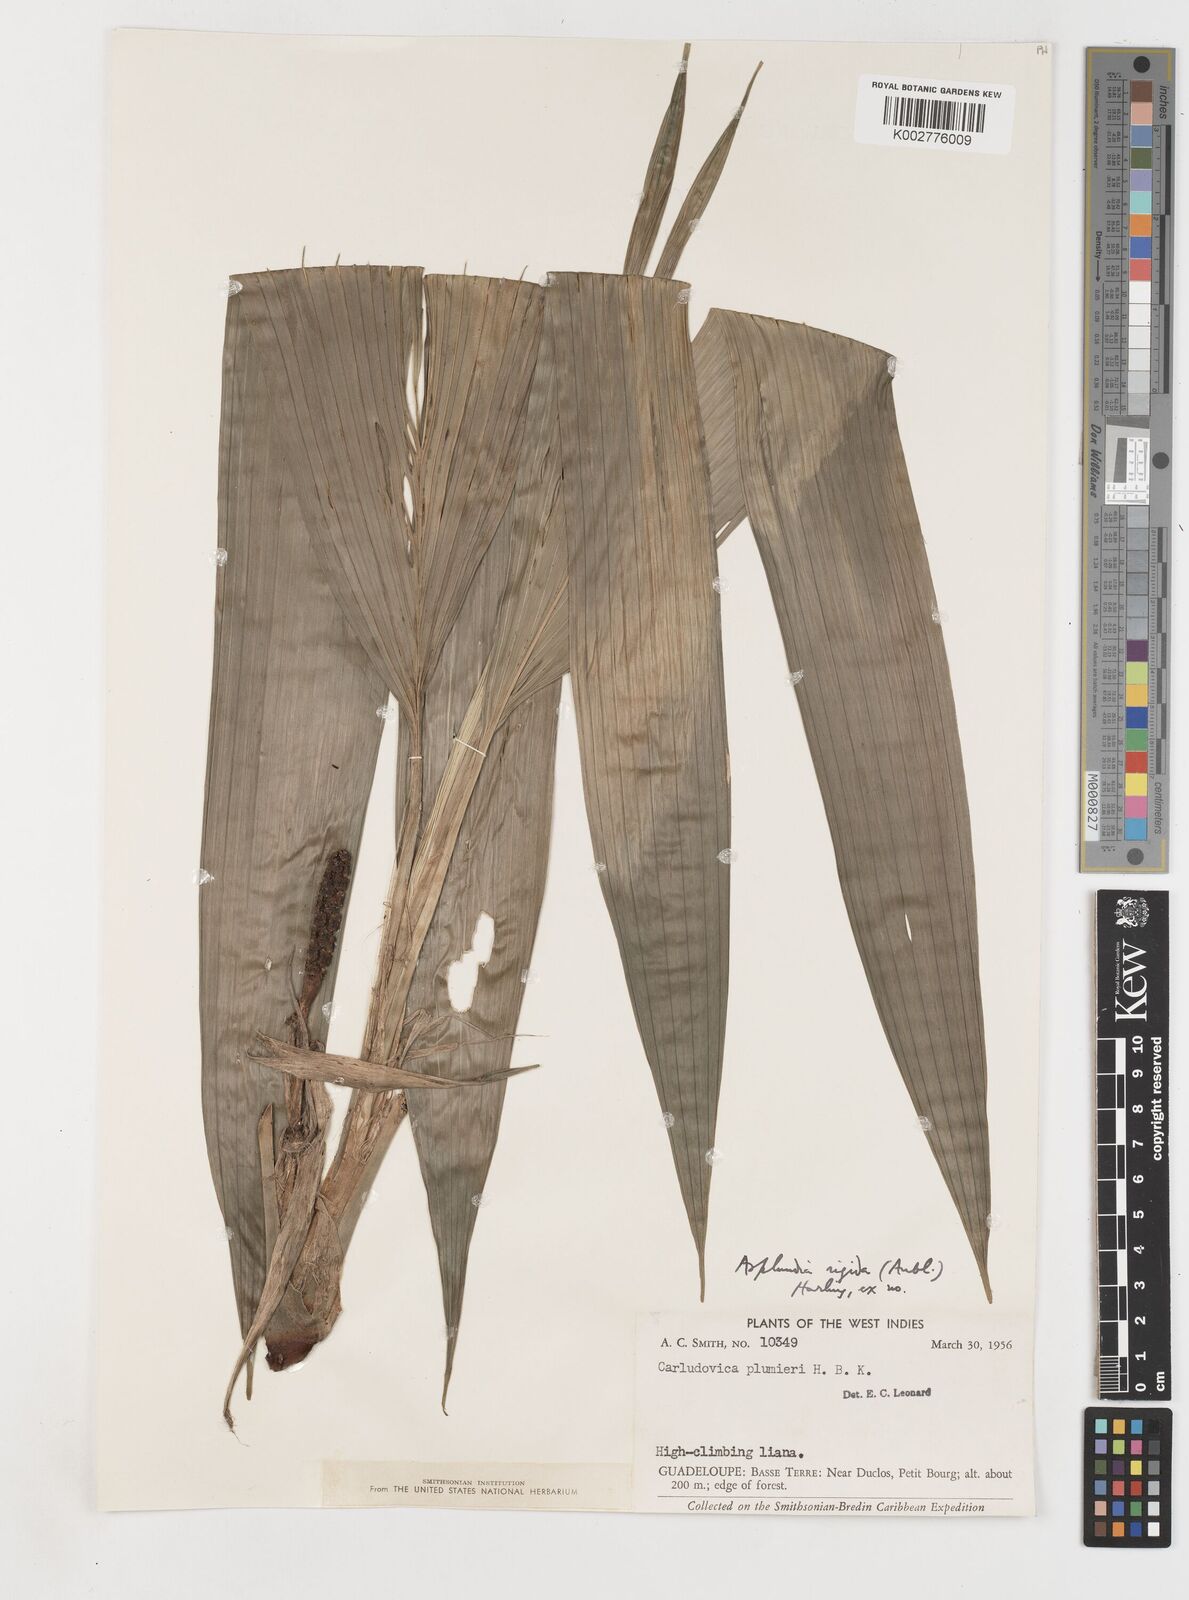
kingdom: Plantae
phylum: Tracheophyta
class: Liliopsida
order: Pandanales
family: Cyclanthaceae
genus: Asplundia
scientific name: Asplundia rigida
